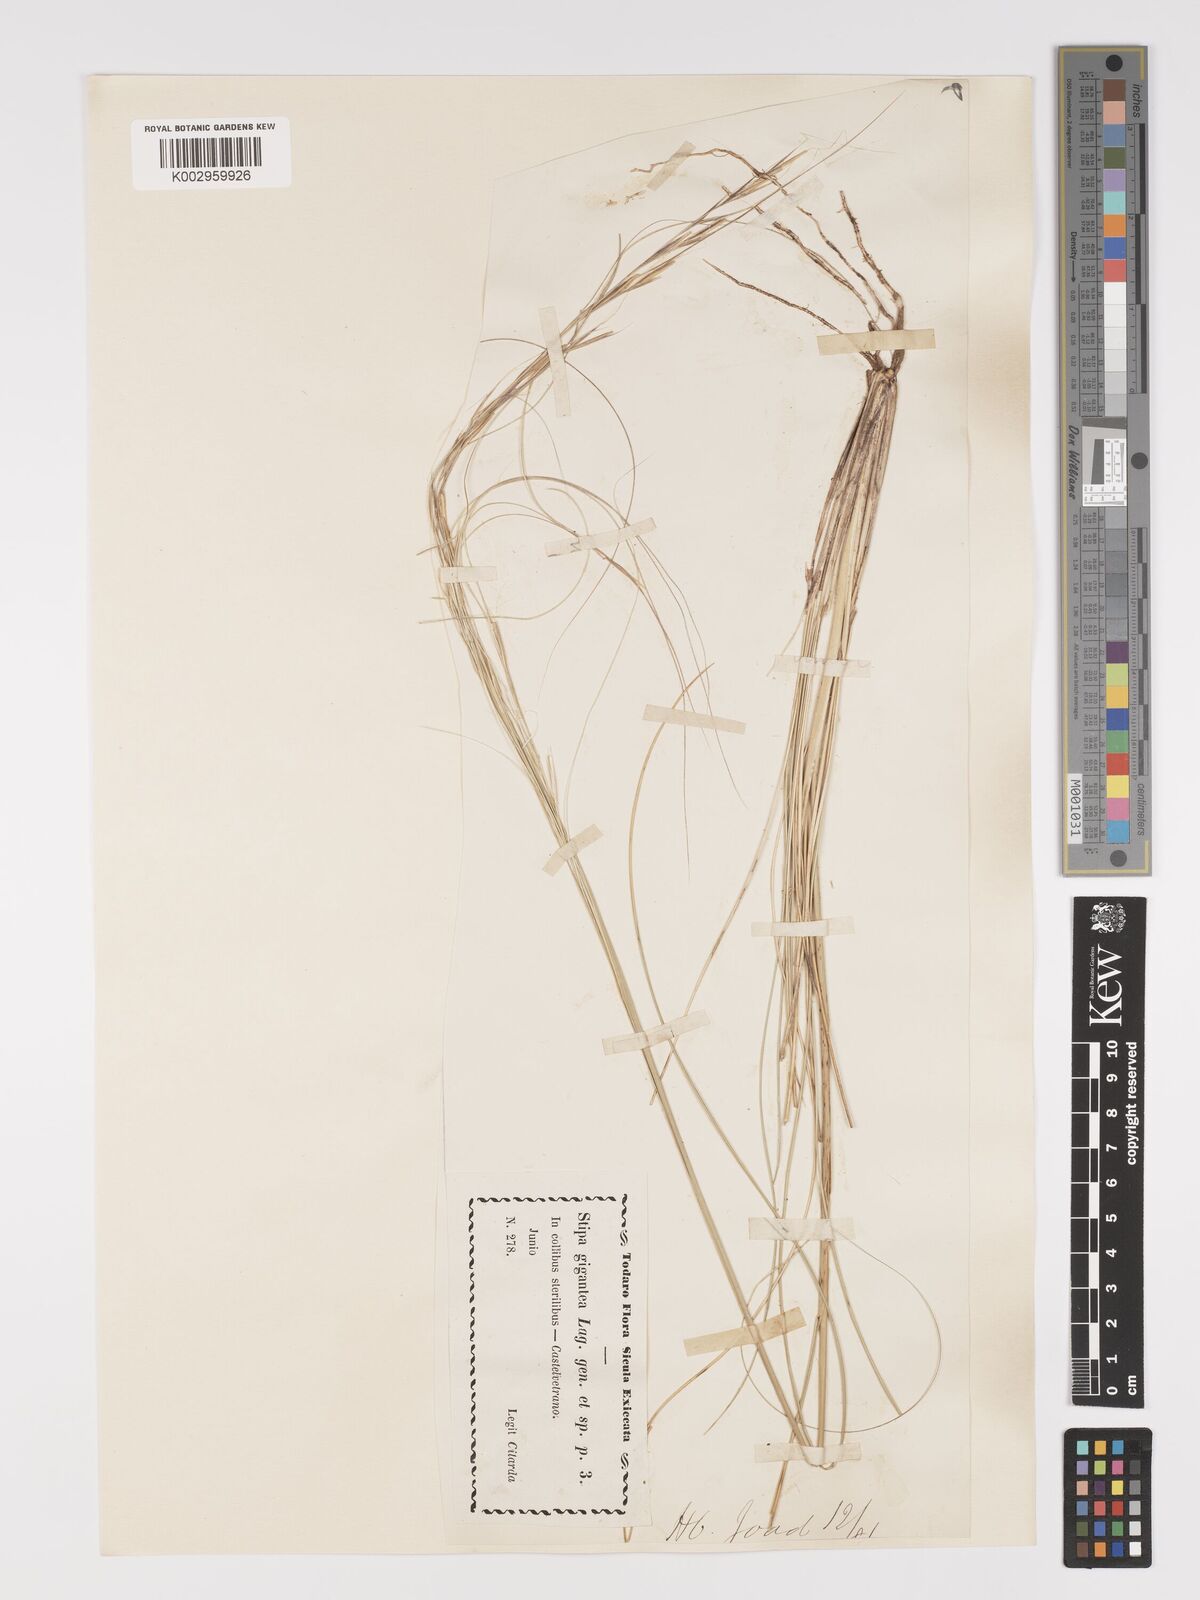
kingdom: Plantae
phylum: Tracheophyta
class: Liliopsida
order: Poales
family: Poaceae
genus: Stipa
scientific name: Stipa
